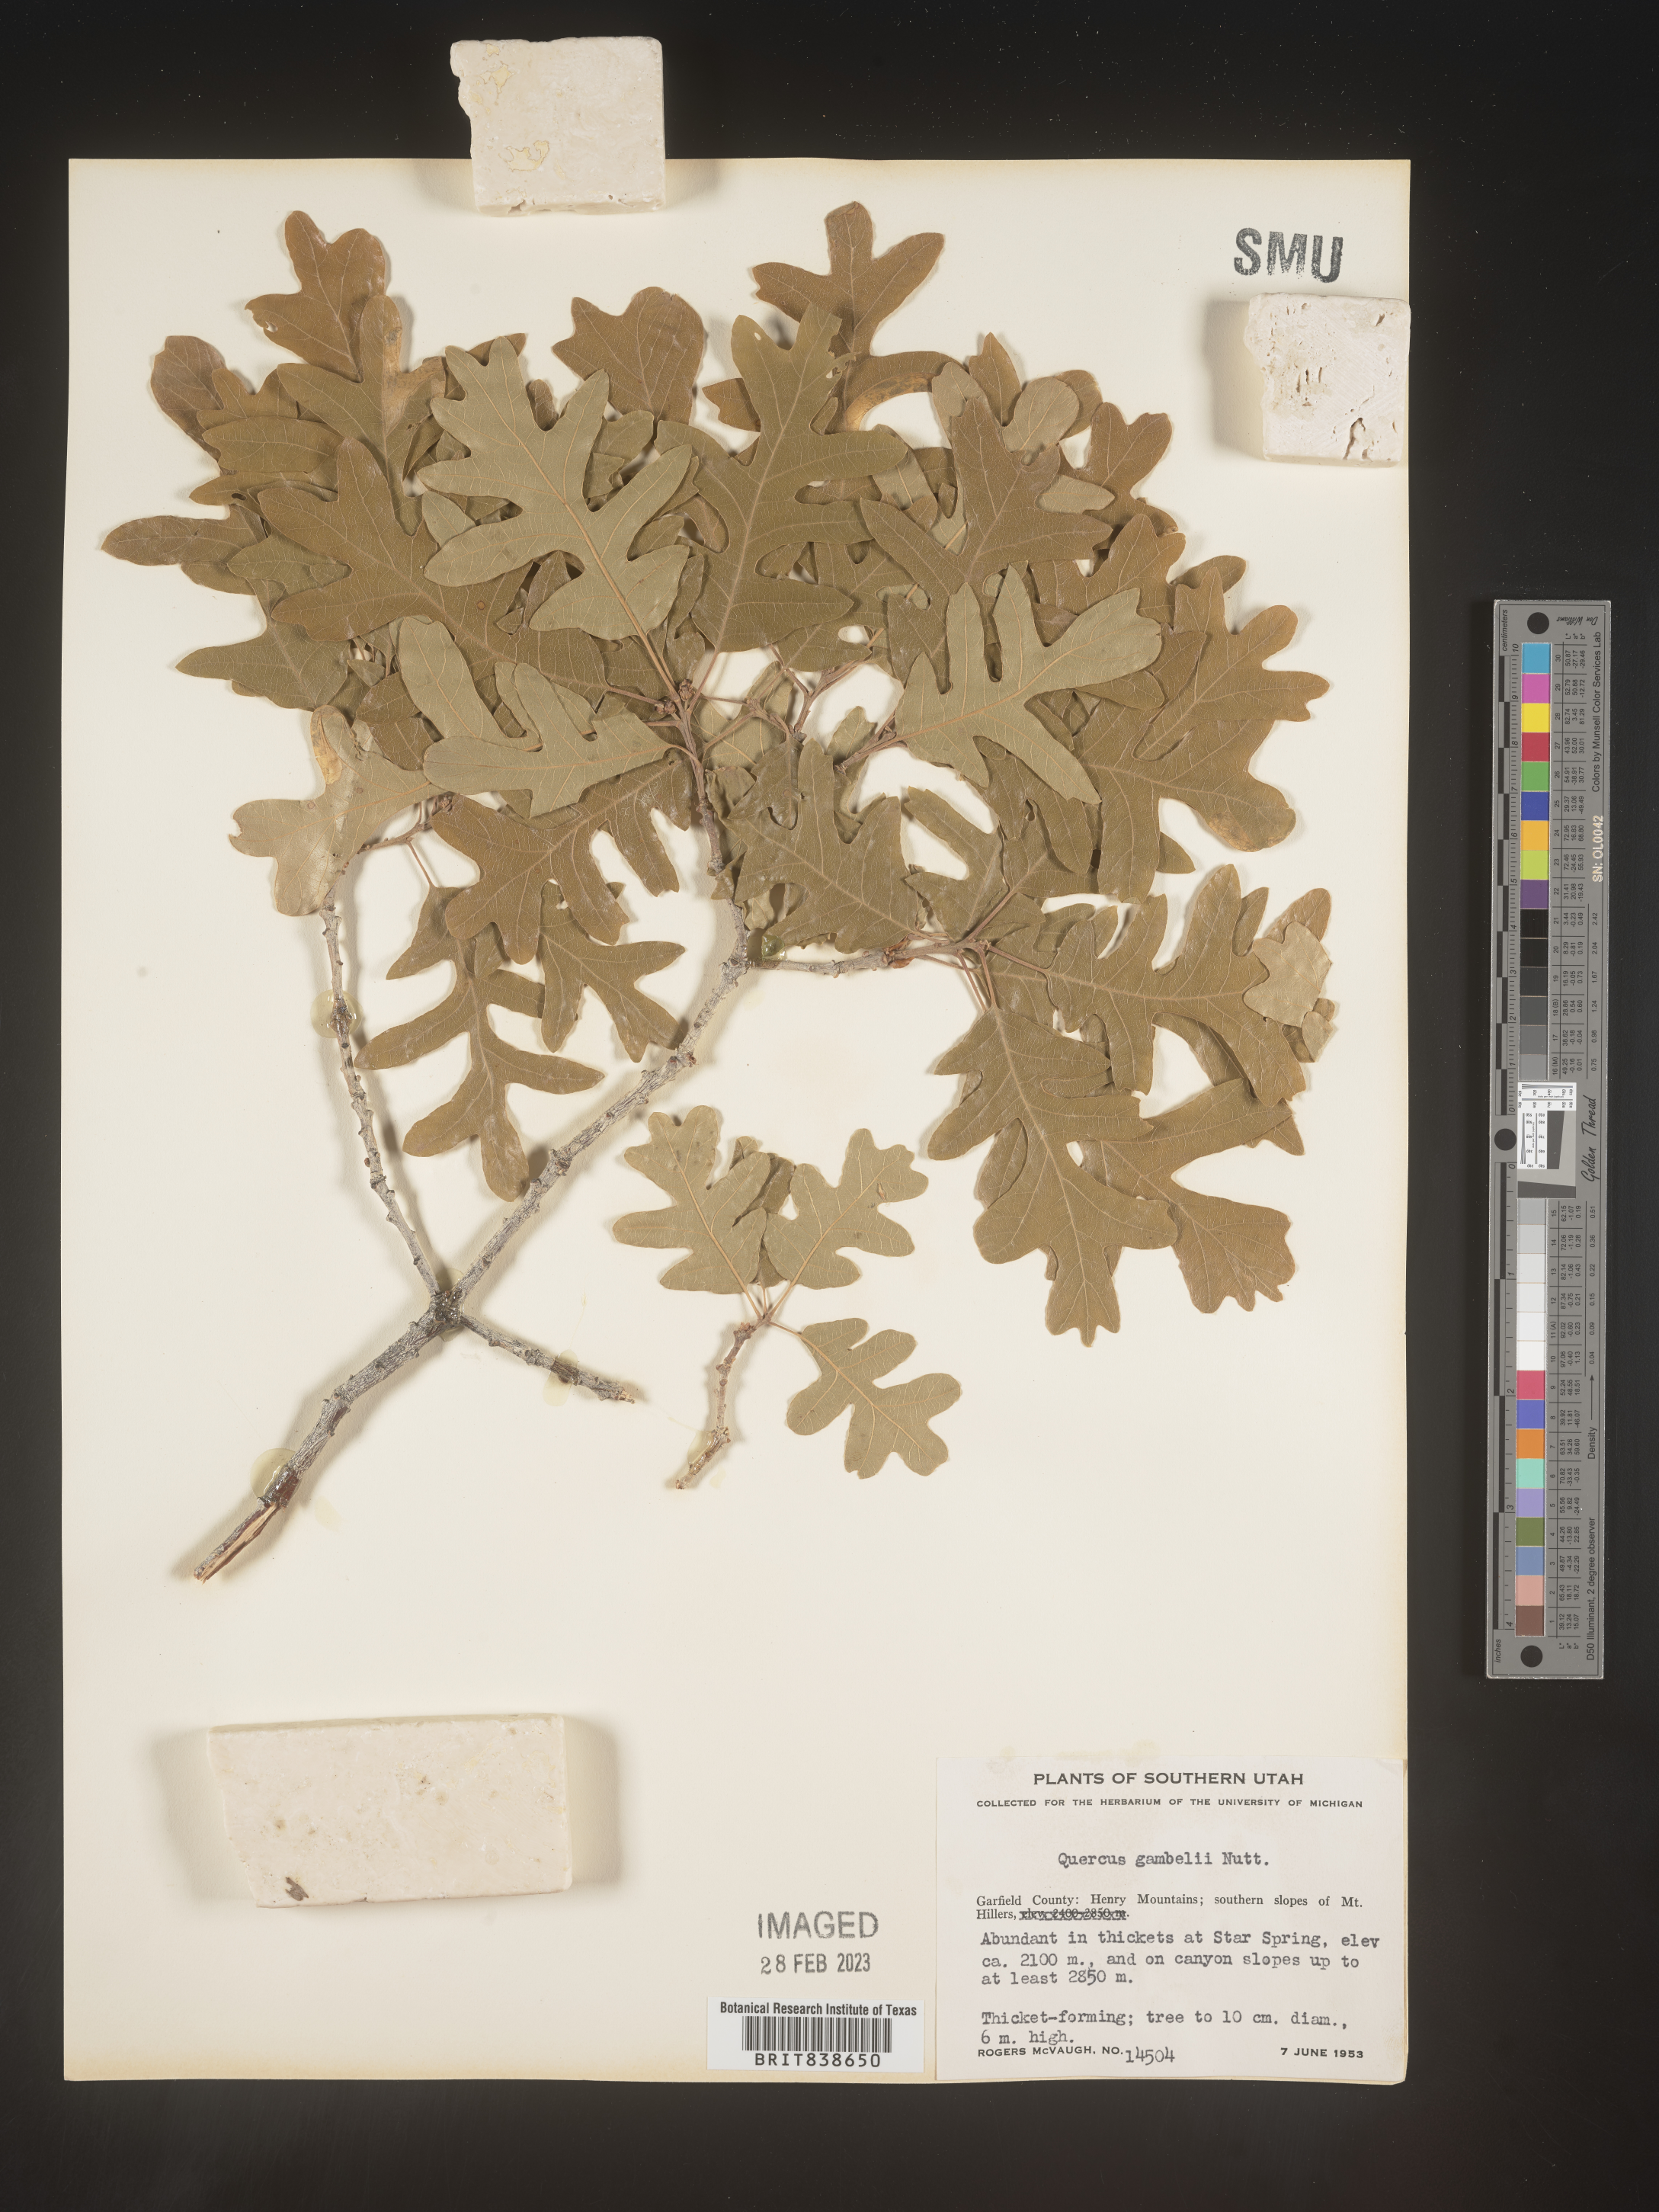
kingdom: Plantae
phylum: Tracheophyta
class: Magnoliopsida
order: Fagales
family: Fagaceae
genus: Quercus
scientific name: Quercus gambelii
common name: Gambel oak
